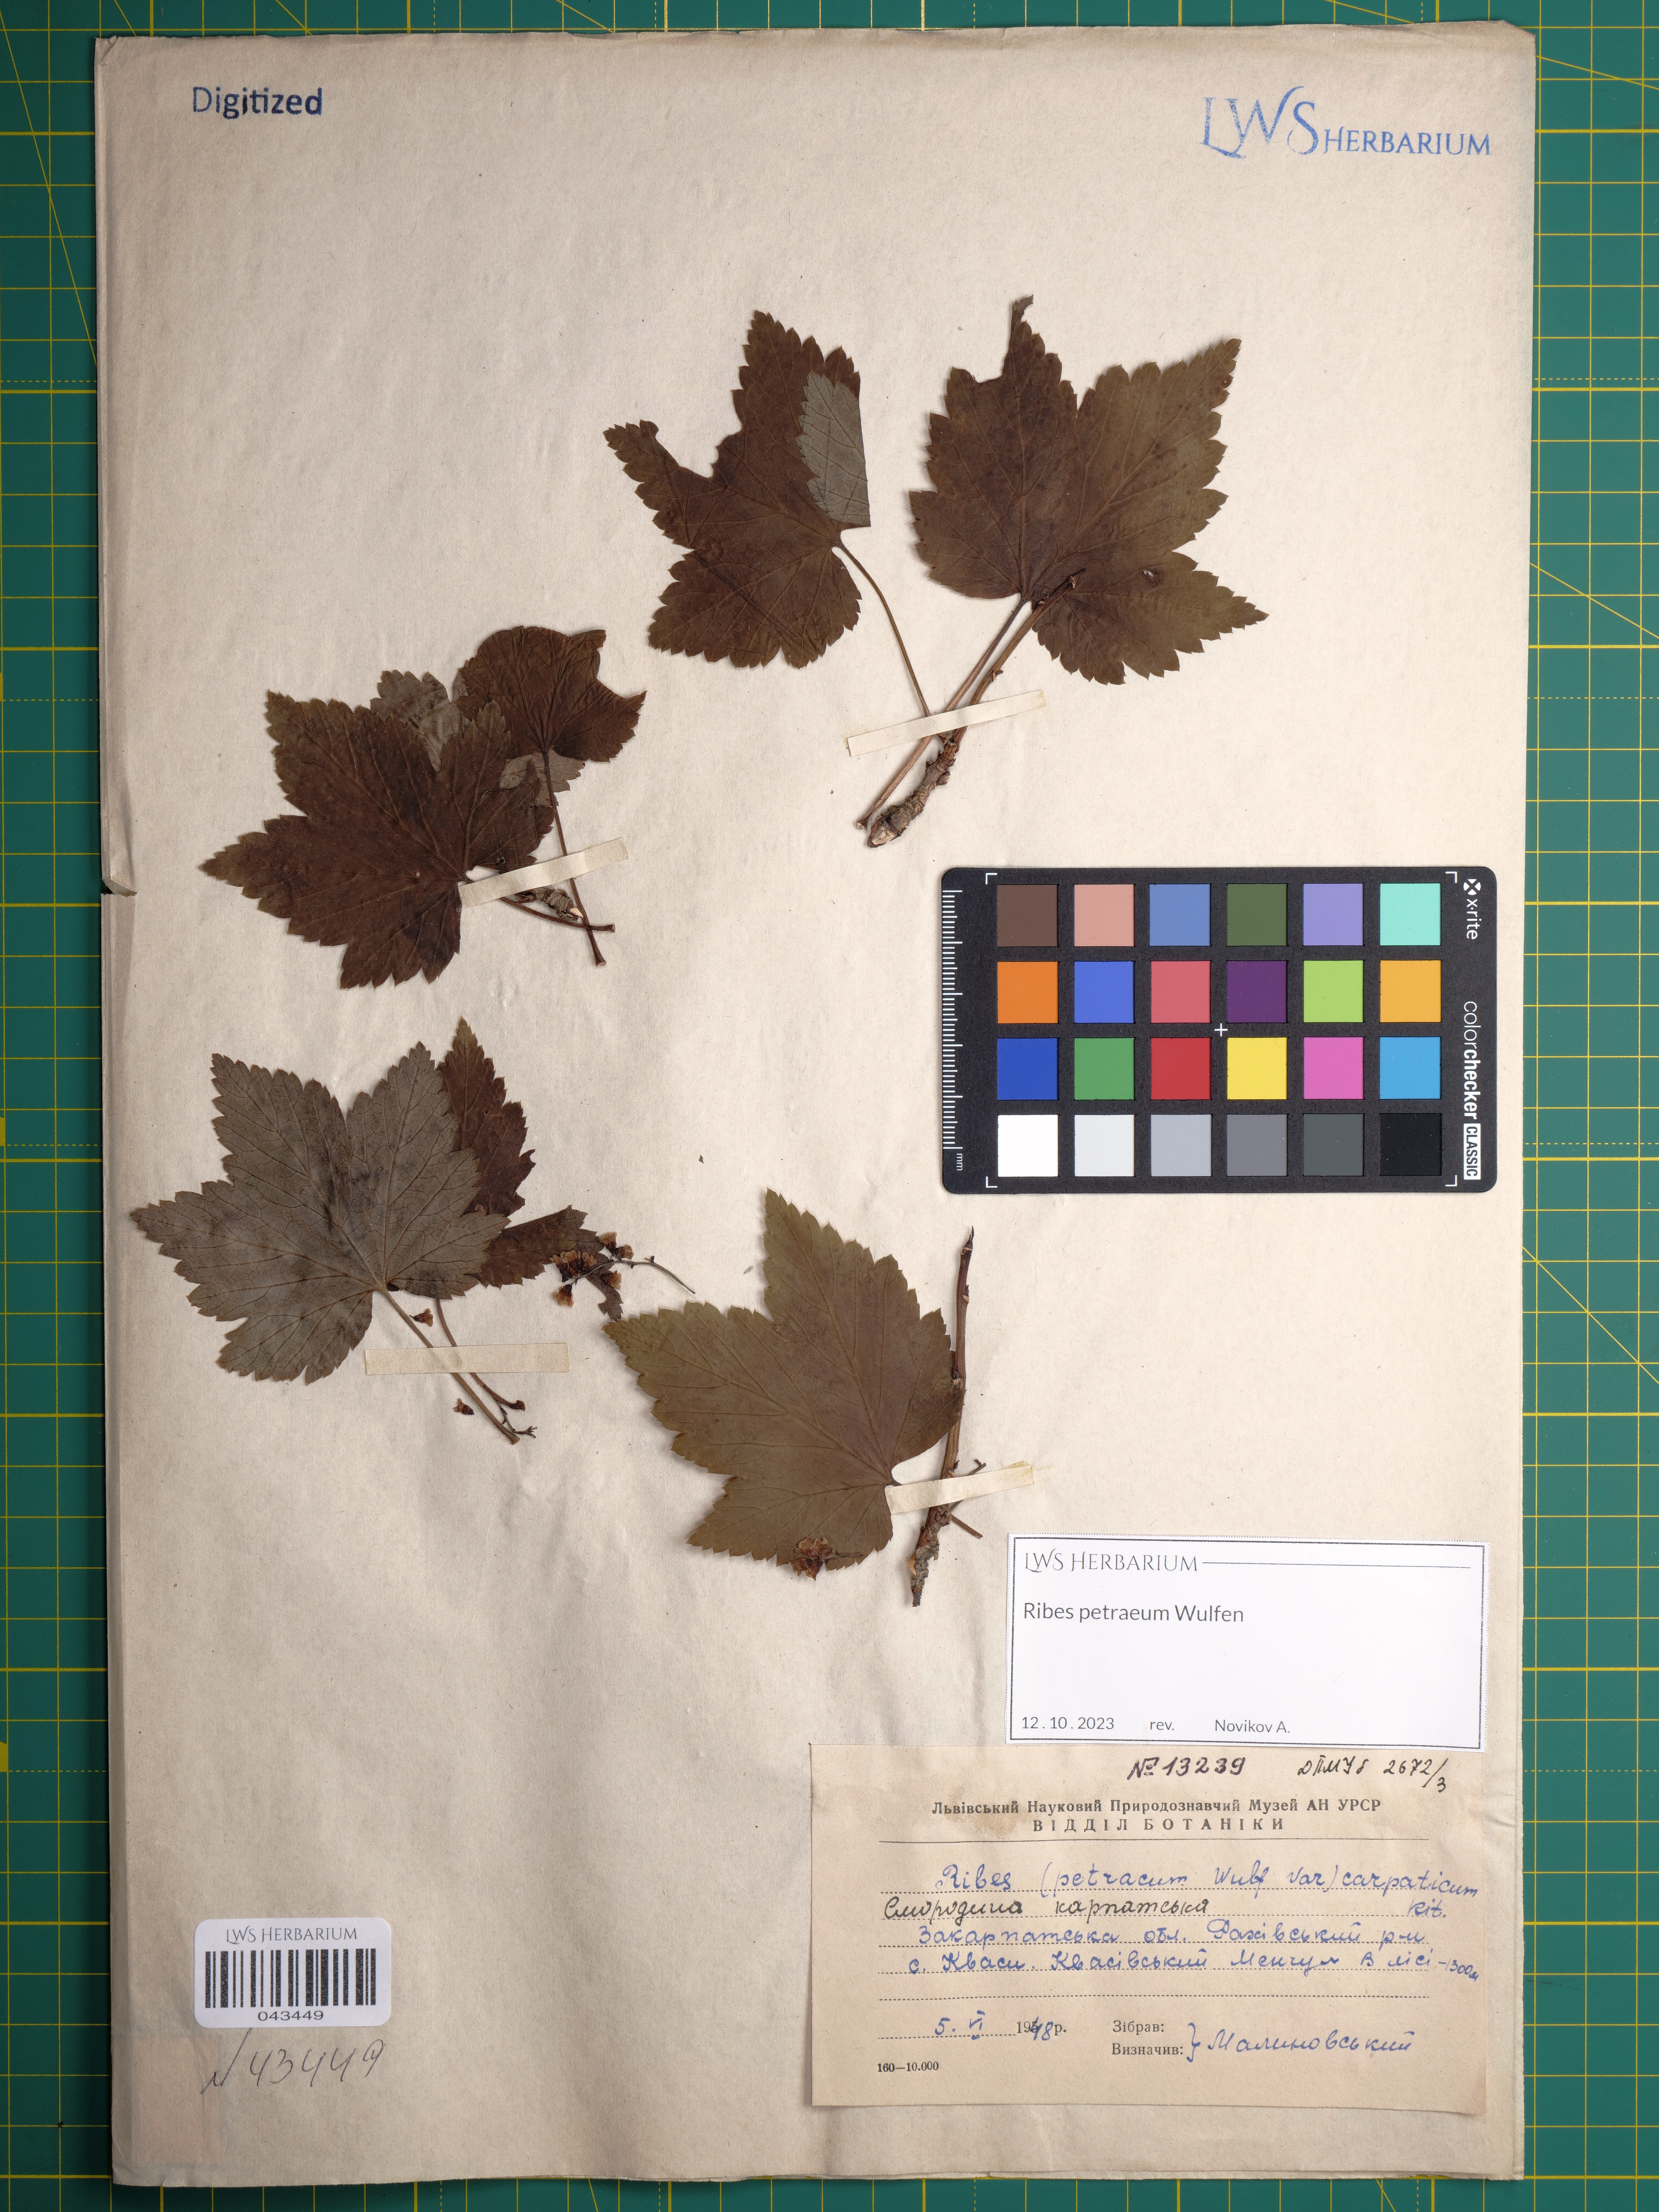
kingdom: Plantae
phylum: Tracheophyta
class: Magnoliopsida
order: Saxifragales
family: Grossulariaceae
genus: Ribes
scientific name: Ribes petraeum
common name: Rock currant
